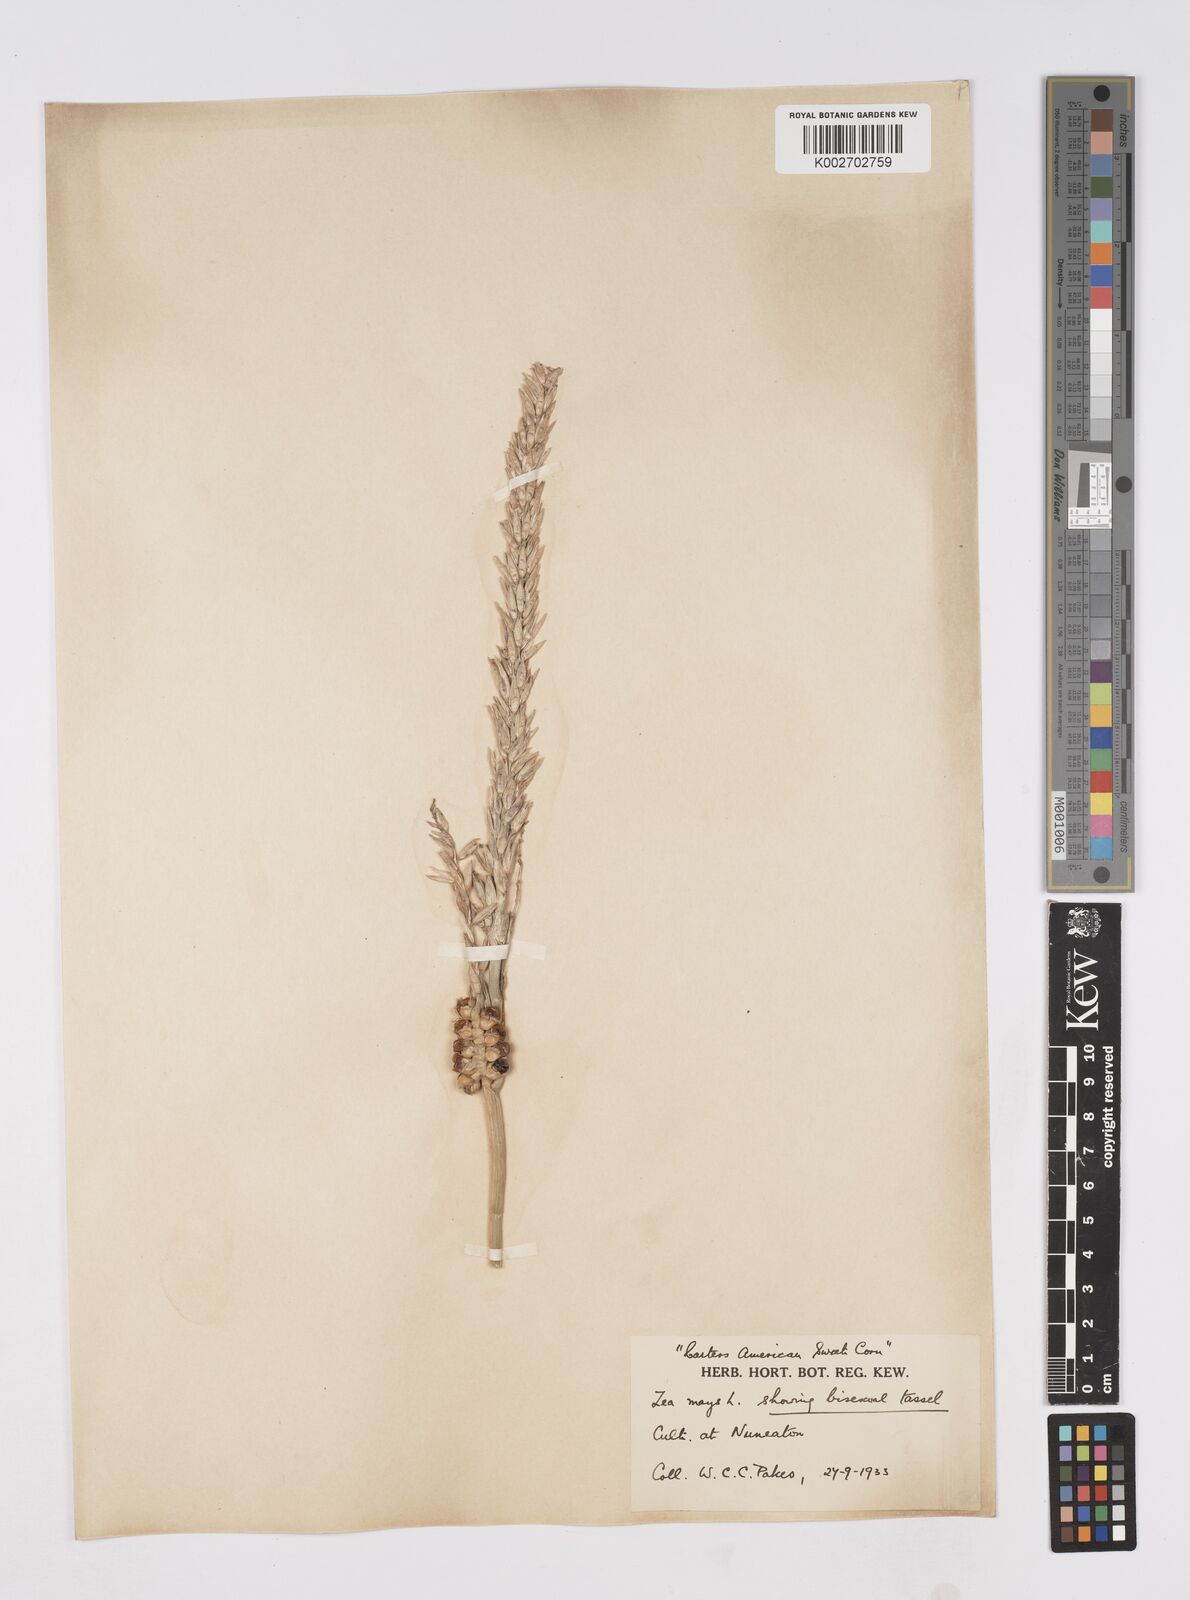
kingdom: Plantae
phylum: Tracheophyta
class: Liliopsida
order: Poales
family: Poaceae
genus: Zea
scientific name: Zea mays
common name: Maize
